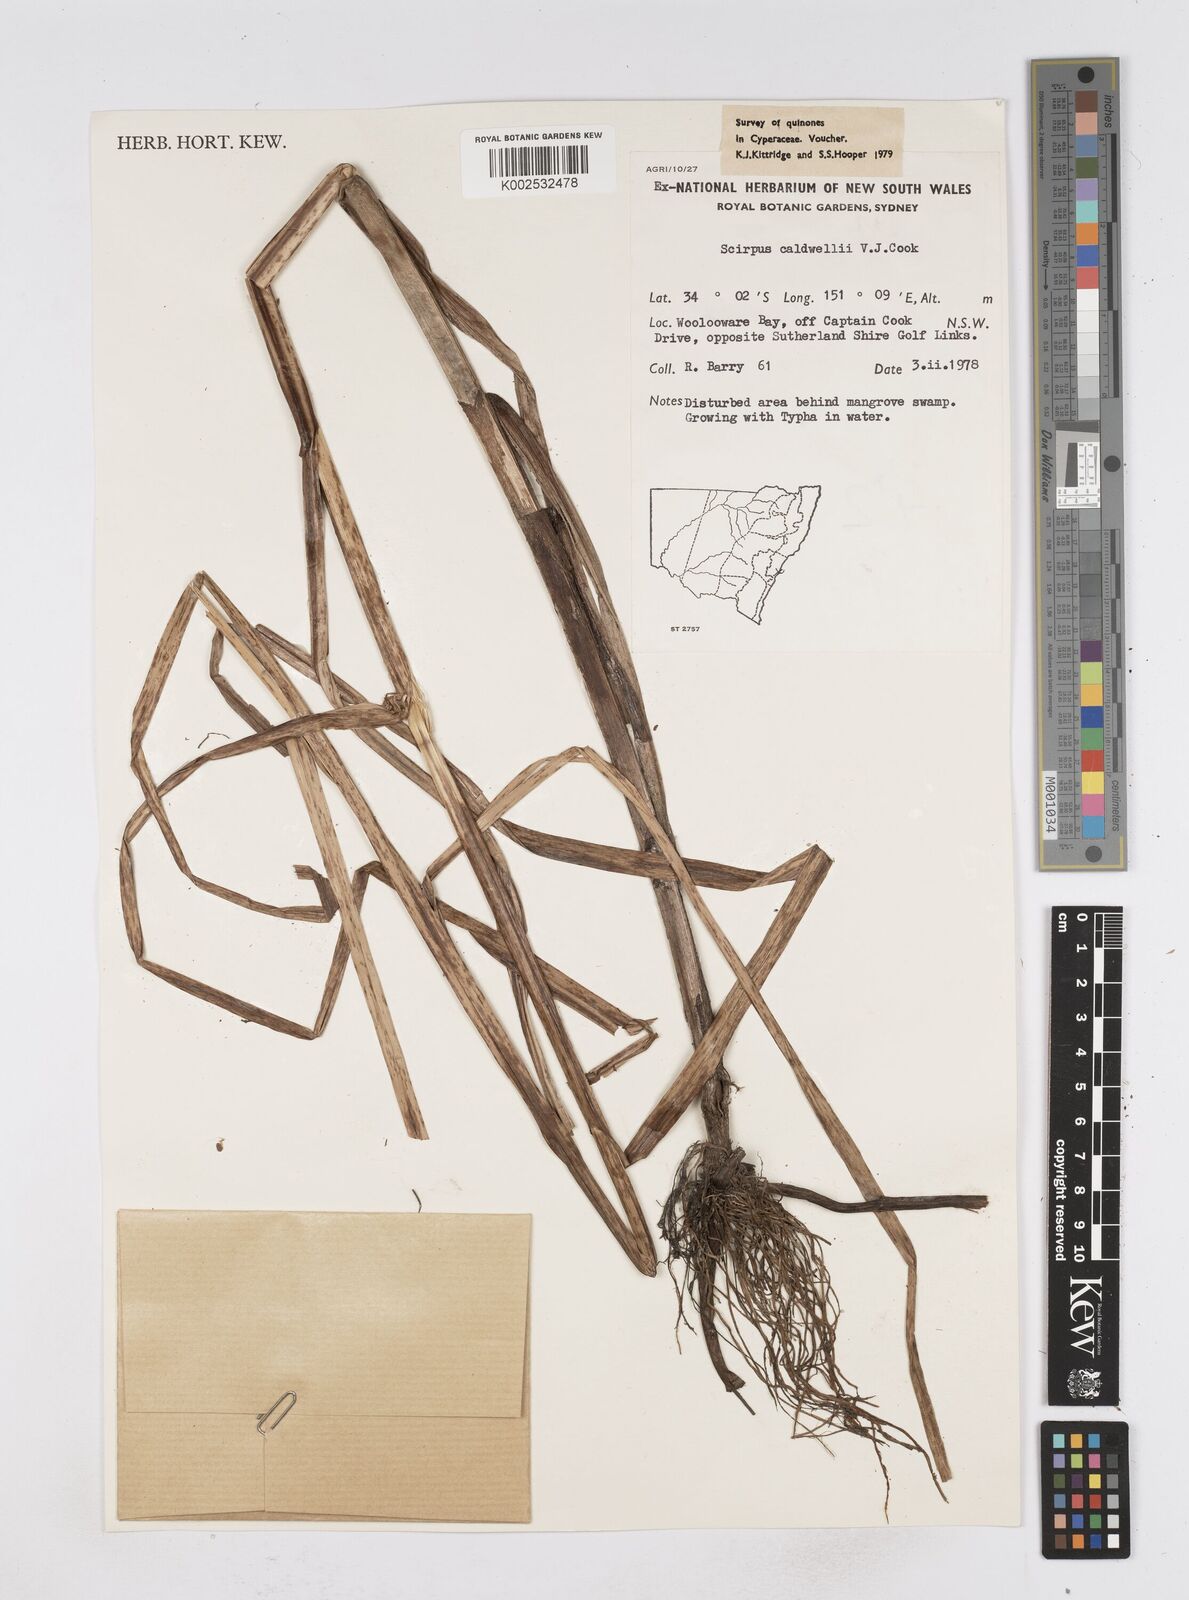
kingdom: Plantae
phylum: Tracheophyta
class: Liliopsida
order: Poales
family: Cyperaceae
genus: Bolboschoenus
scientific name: Bolboschoenus caldwellii
